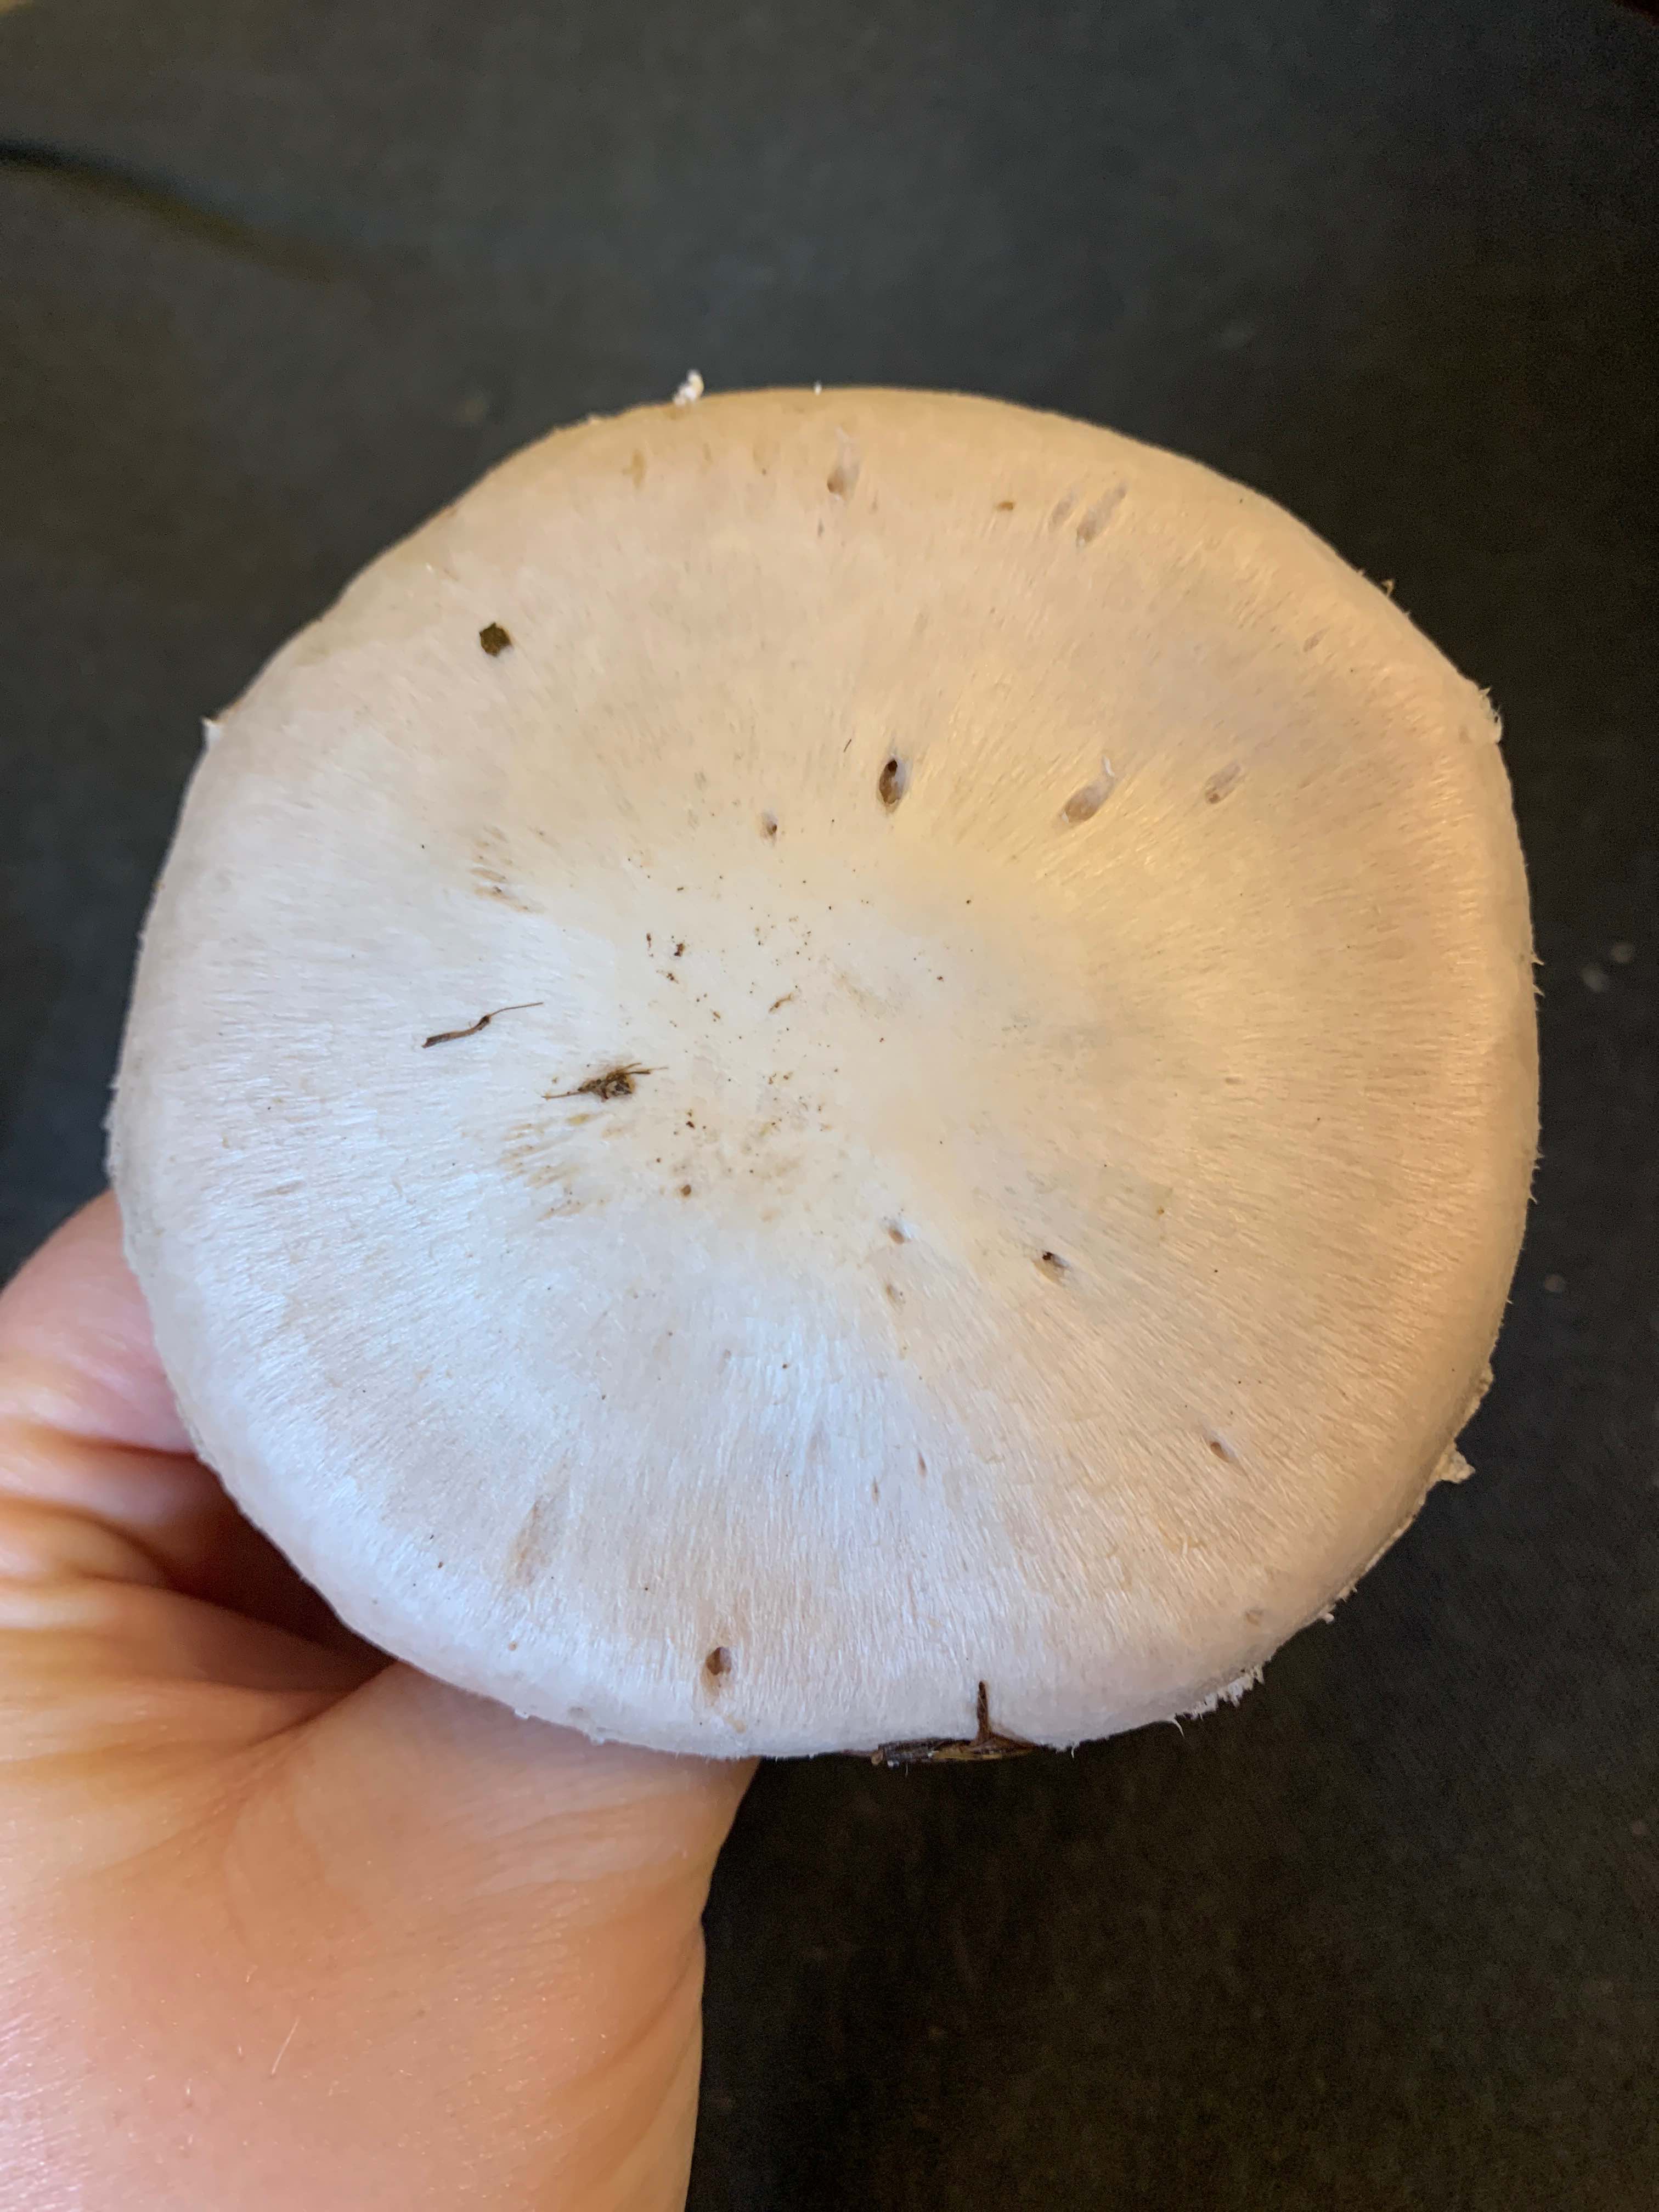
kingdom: Fungi
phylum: Basidiomycota
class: Agaricomycetes
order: Agaricales
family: Agaricaceae
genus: Agaricus
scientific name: Agaricus
